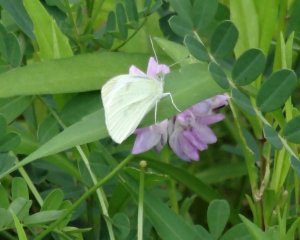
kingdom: Animalia
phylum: Arthropoda
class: Insecta
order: Lepidoptera
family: Pieridae
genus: Pieris
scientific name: Pieris rapae
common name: Cabbage White
